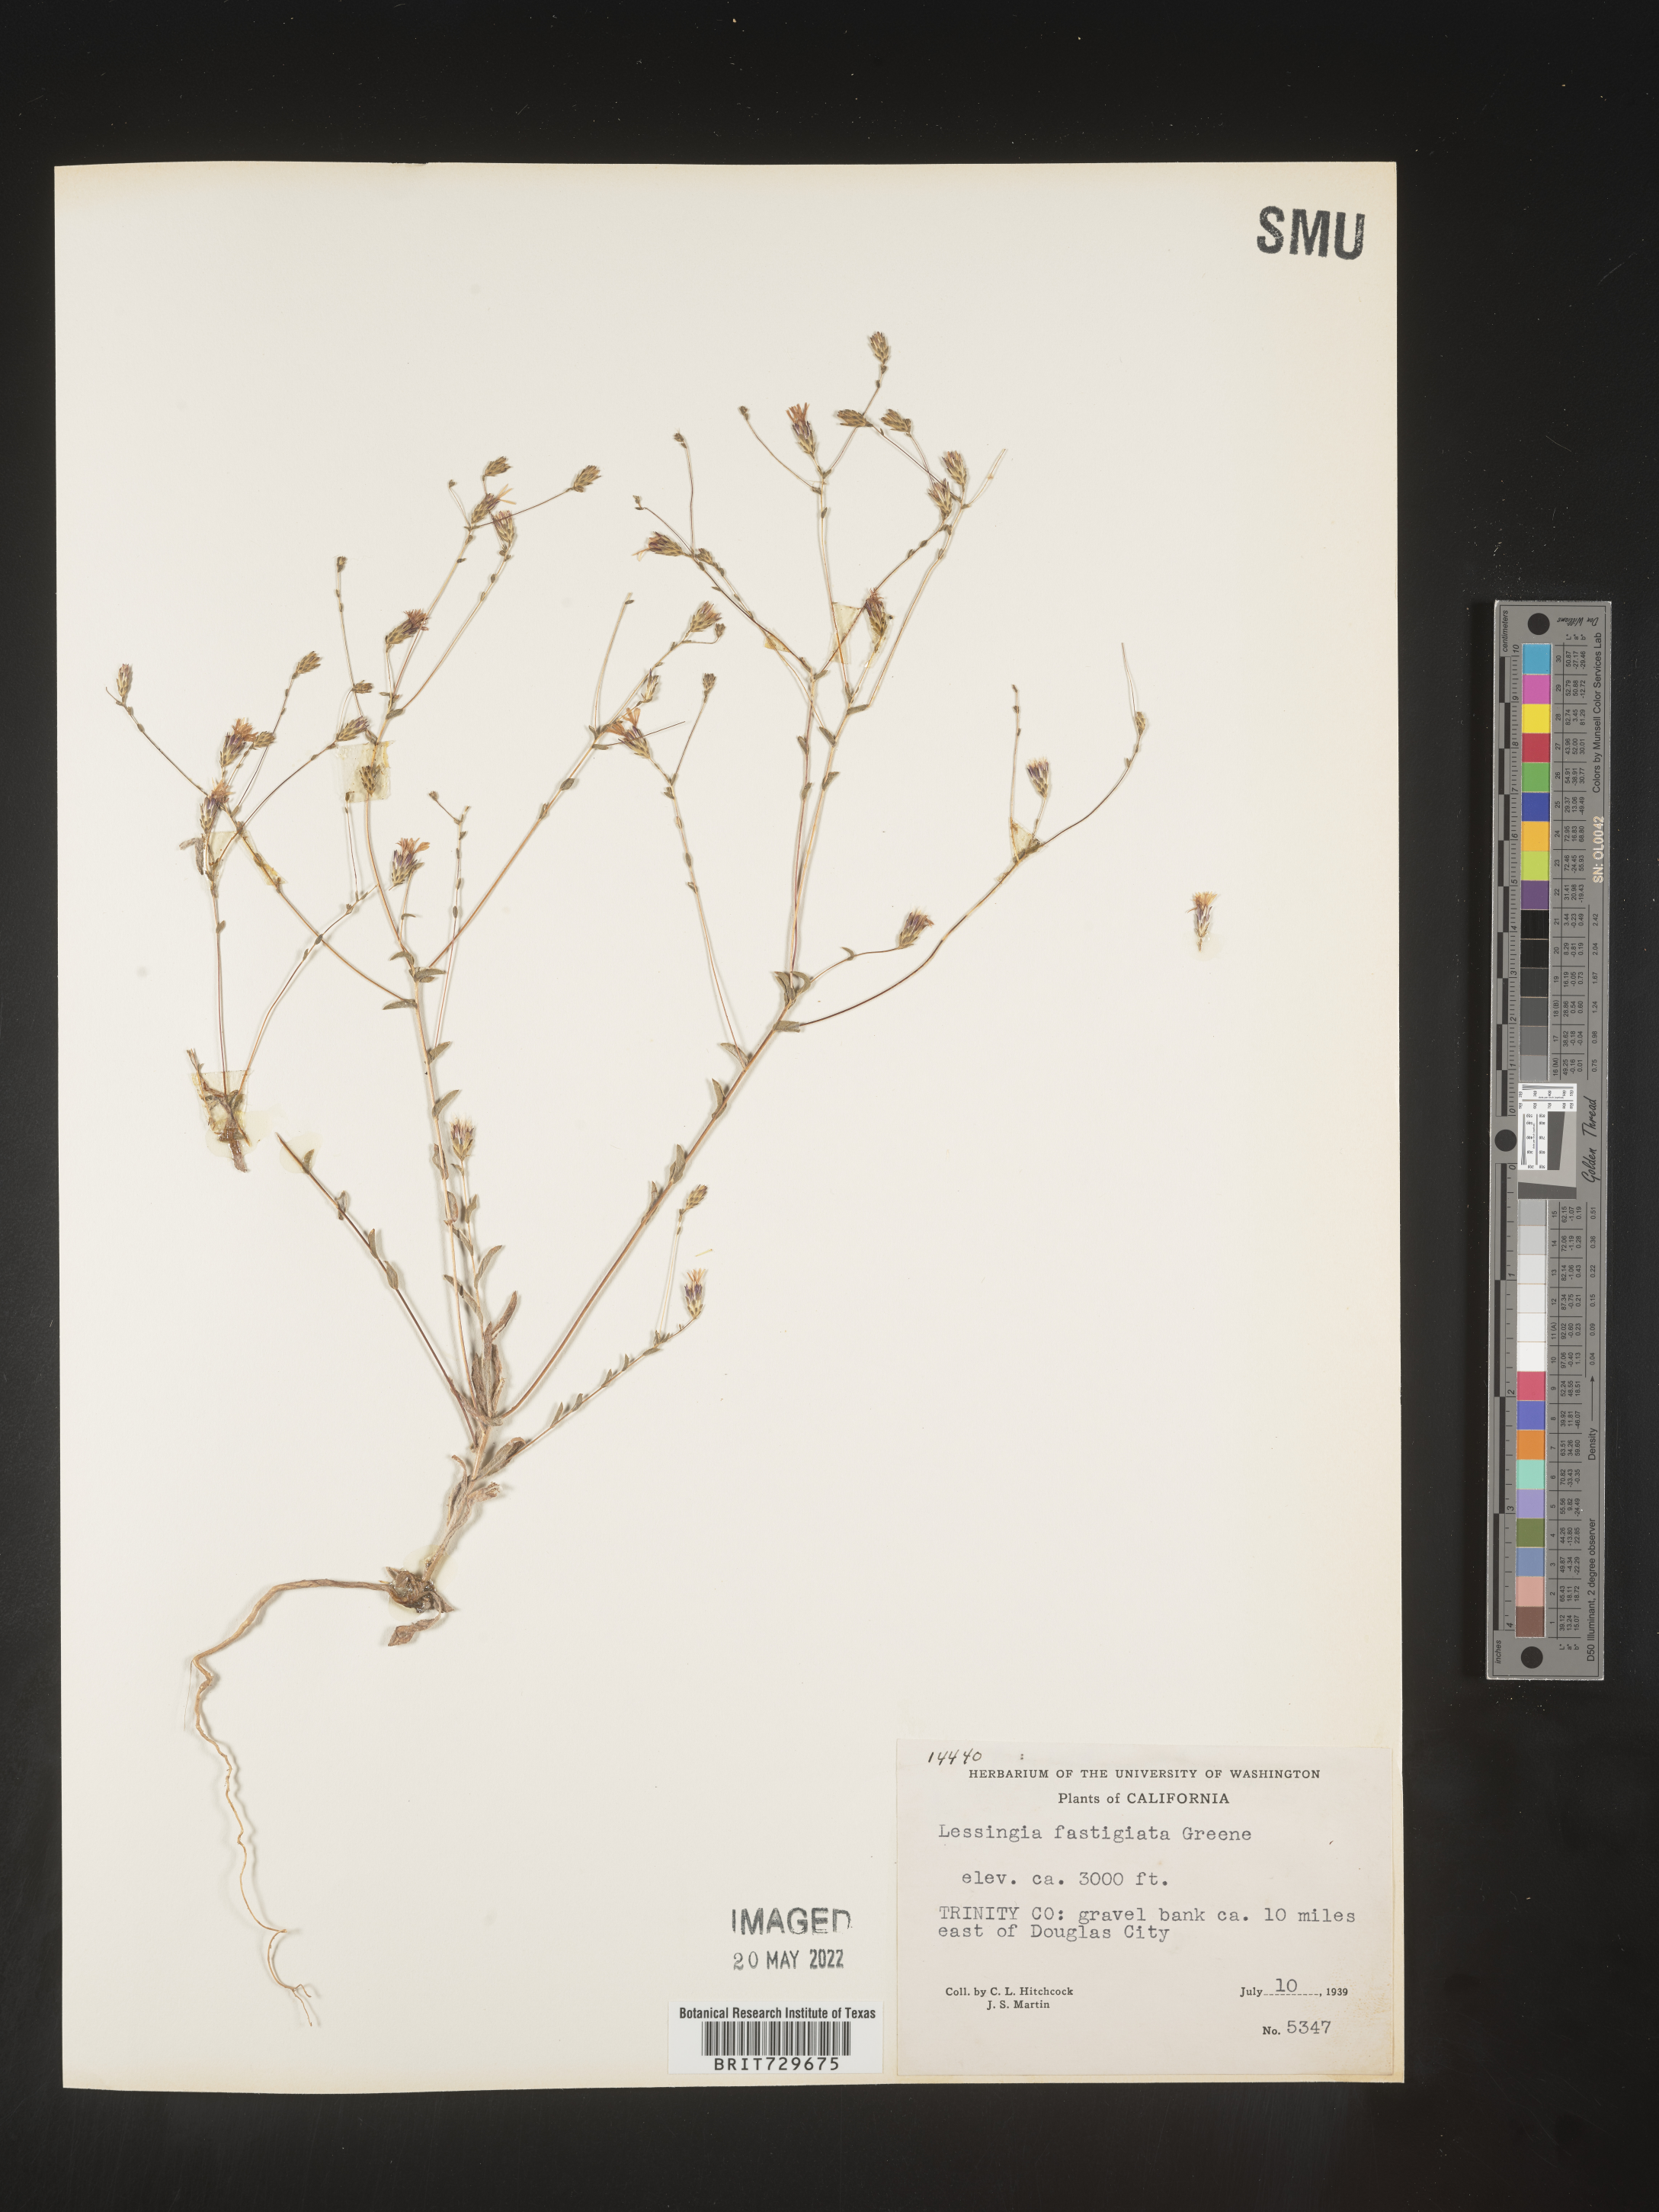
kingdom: Plantae
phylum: Tracheophyta
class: Magnoliopsida
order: Asterales
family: Asteraceae
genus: Lessingia
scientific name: Lessingia
